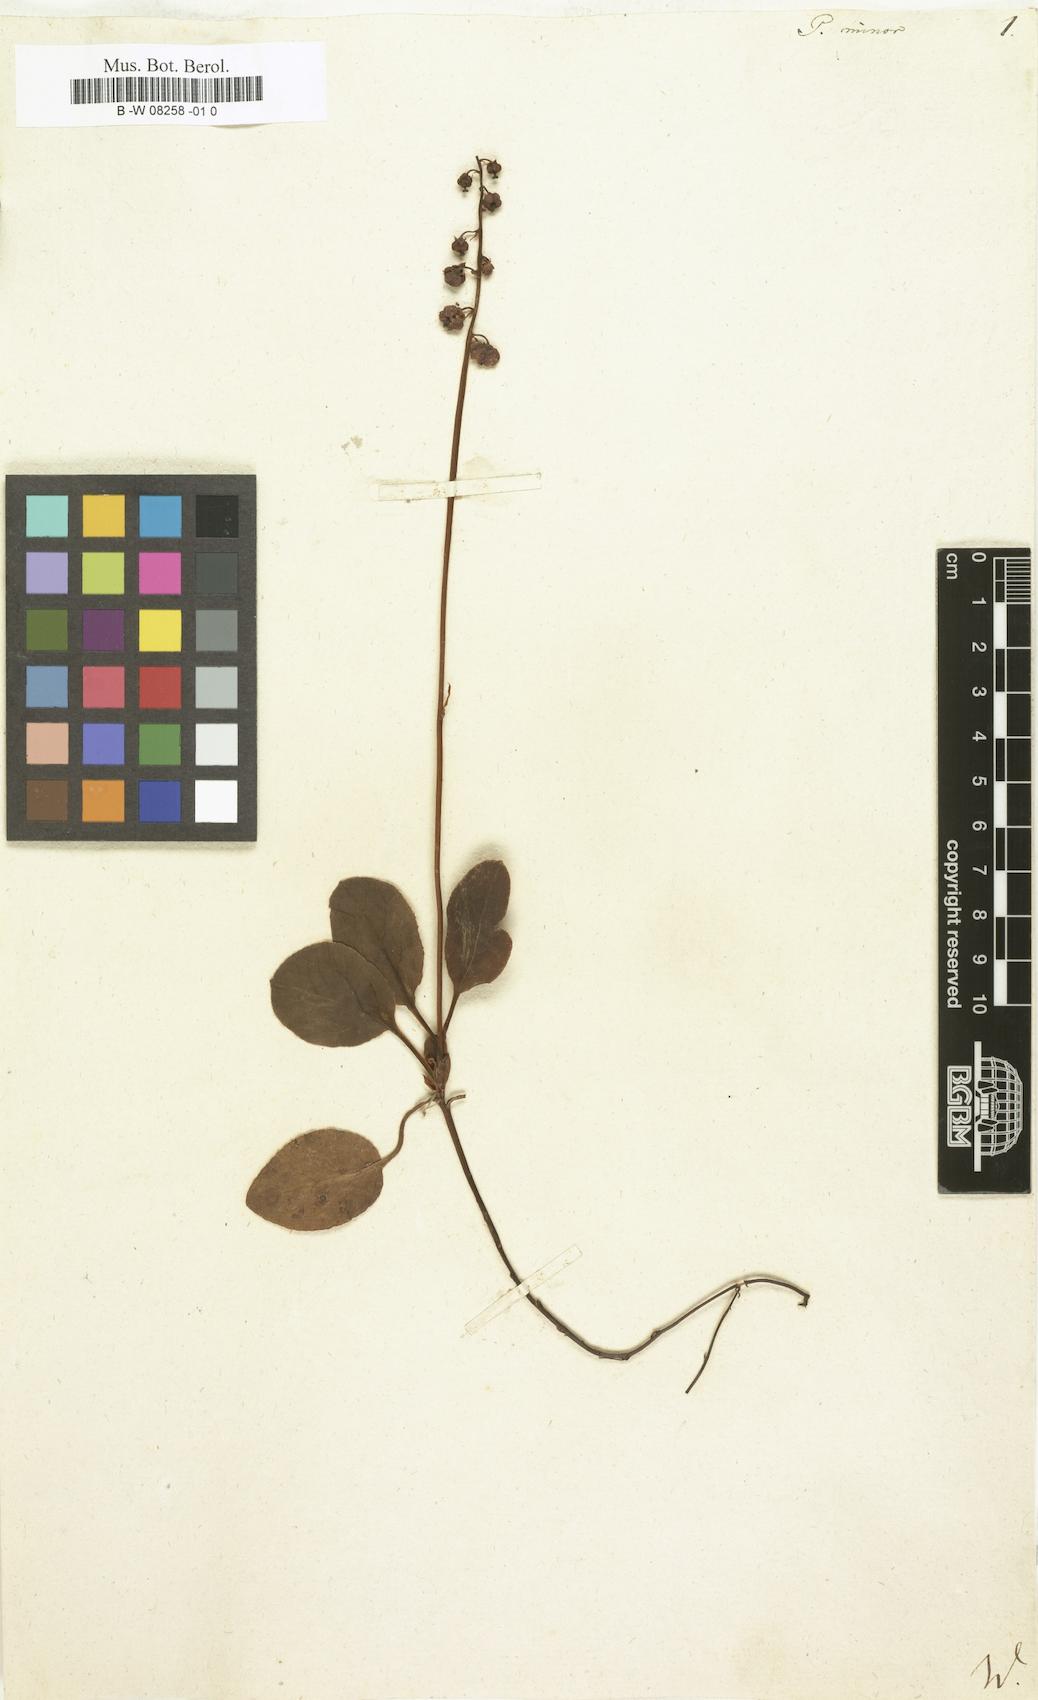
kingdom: Plantae
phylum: Tracheophyta
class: Magnoliopsida
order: Ericales
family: Ericaceae
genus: Pyrola
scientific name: Pyrola minor
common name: Common wintergreen
